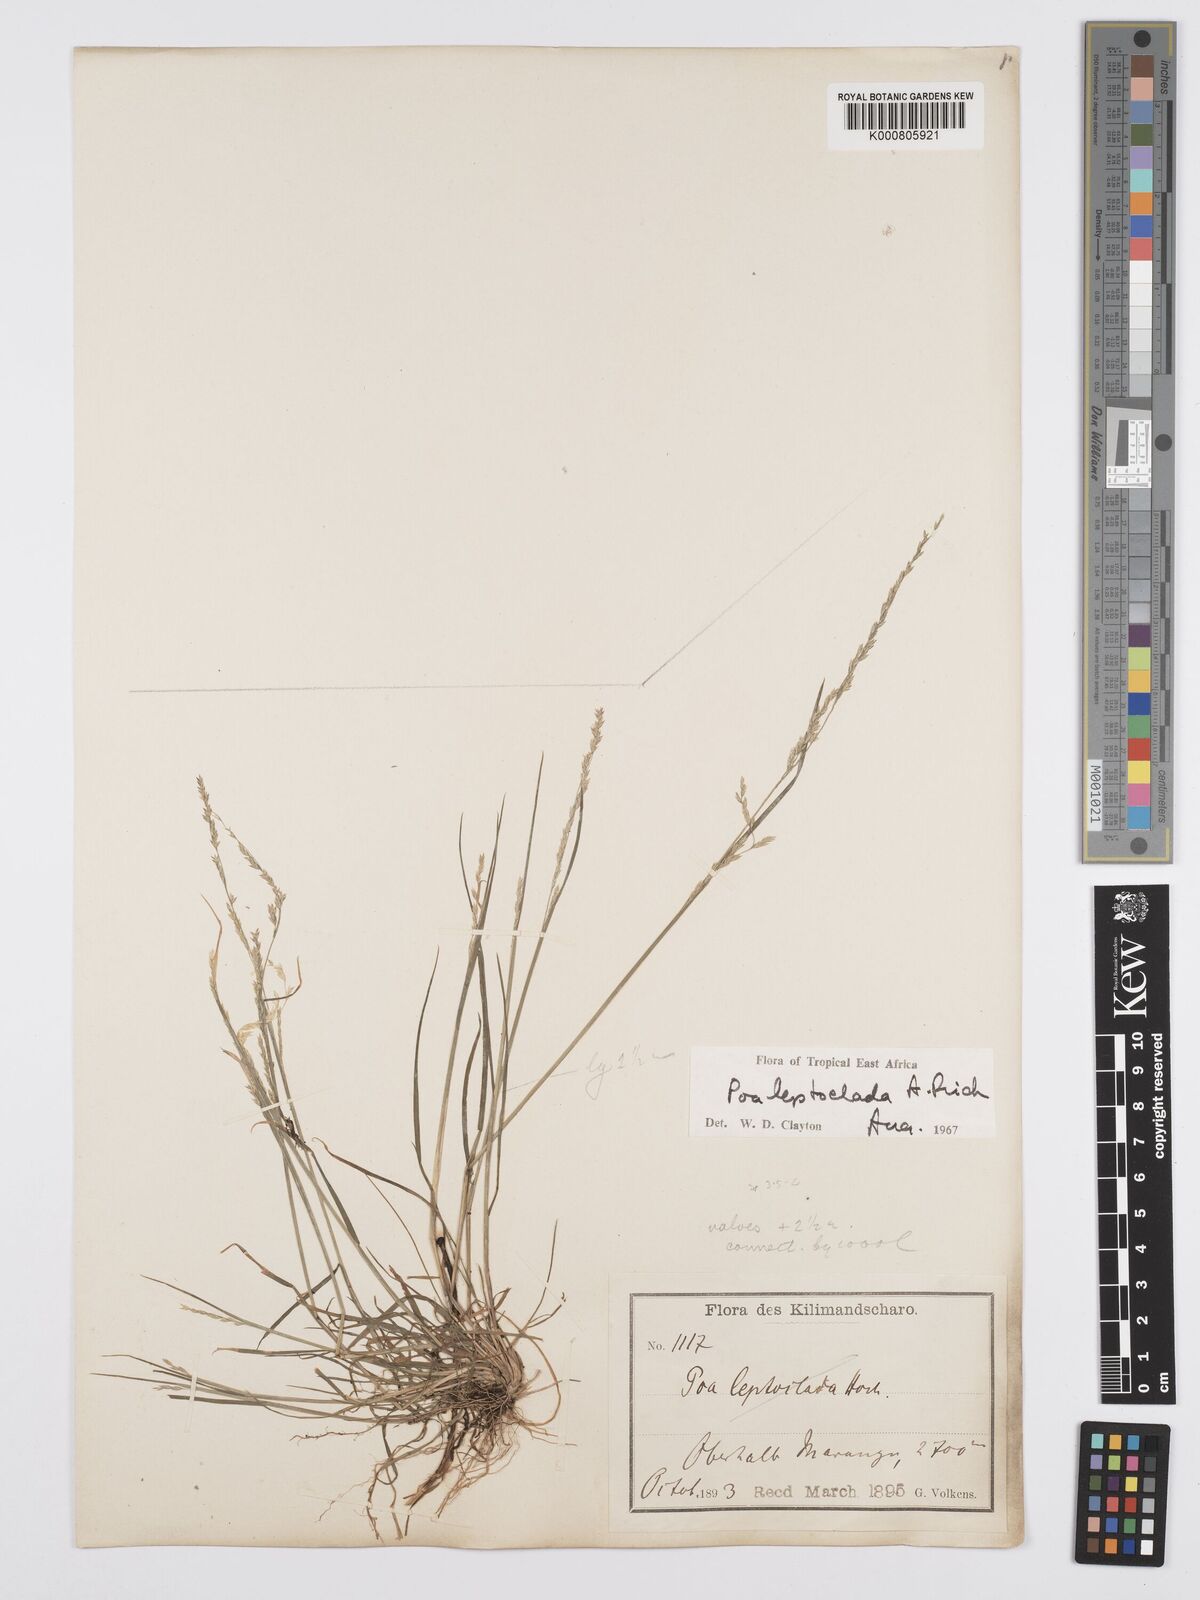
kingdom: Plantae
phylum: Tracheophyta
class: Liliopsida
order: Poales
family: Poaceae
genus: Poa
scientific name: Poa leptoclada
